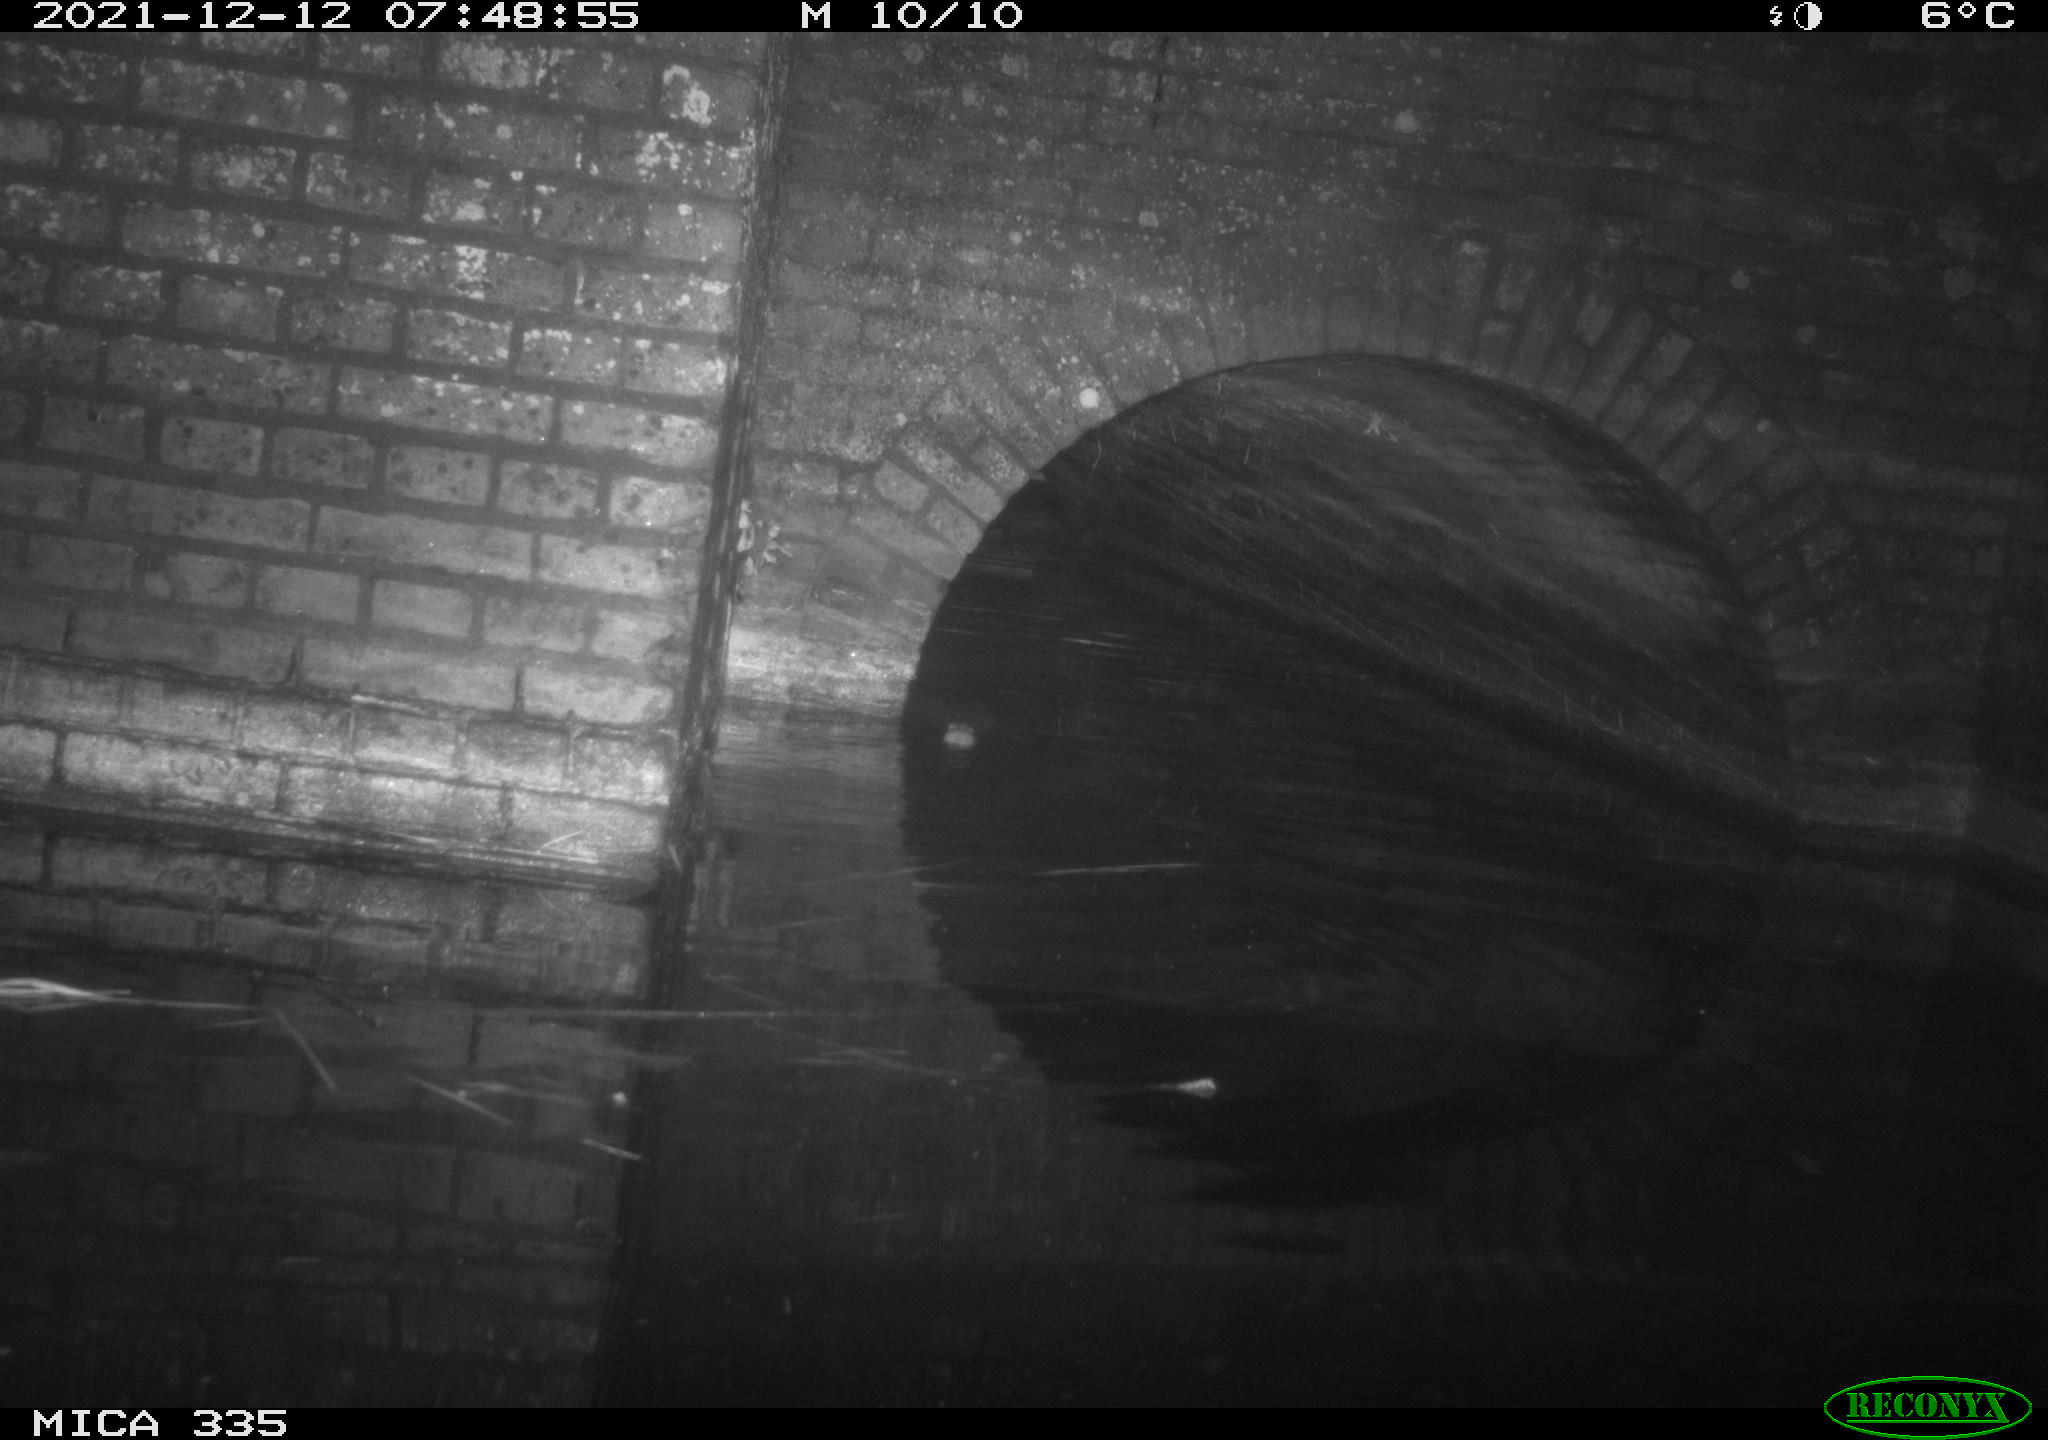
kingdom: Animalia
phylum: Chordata
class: Mammalia
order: Rodentia
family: Muridae
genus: Rattus
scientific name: Rattus norvegicus
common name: Brown rat
